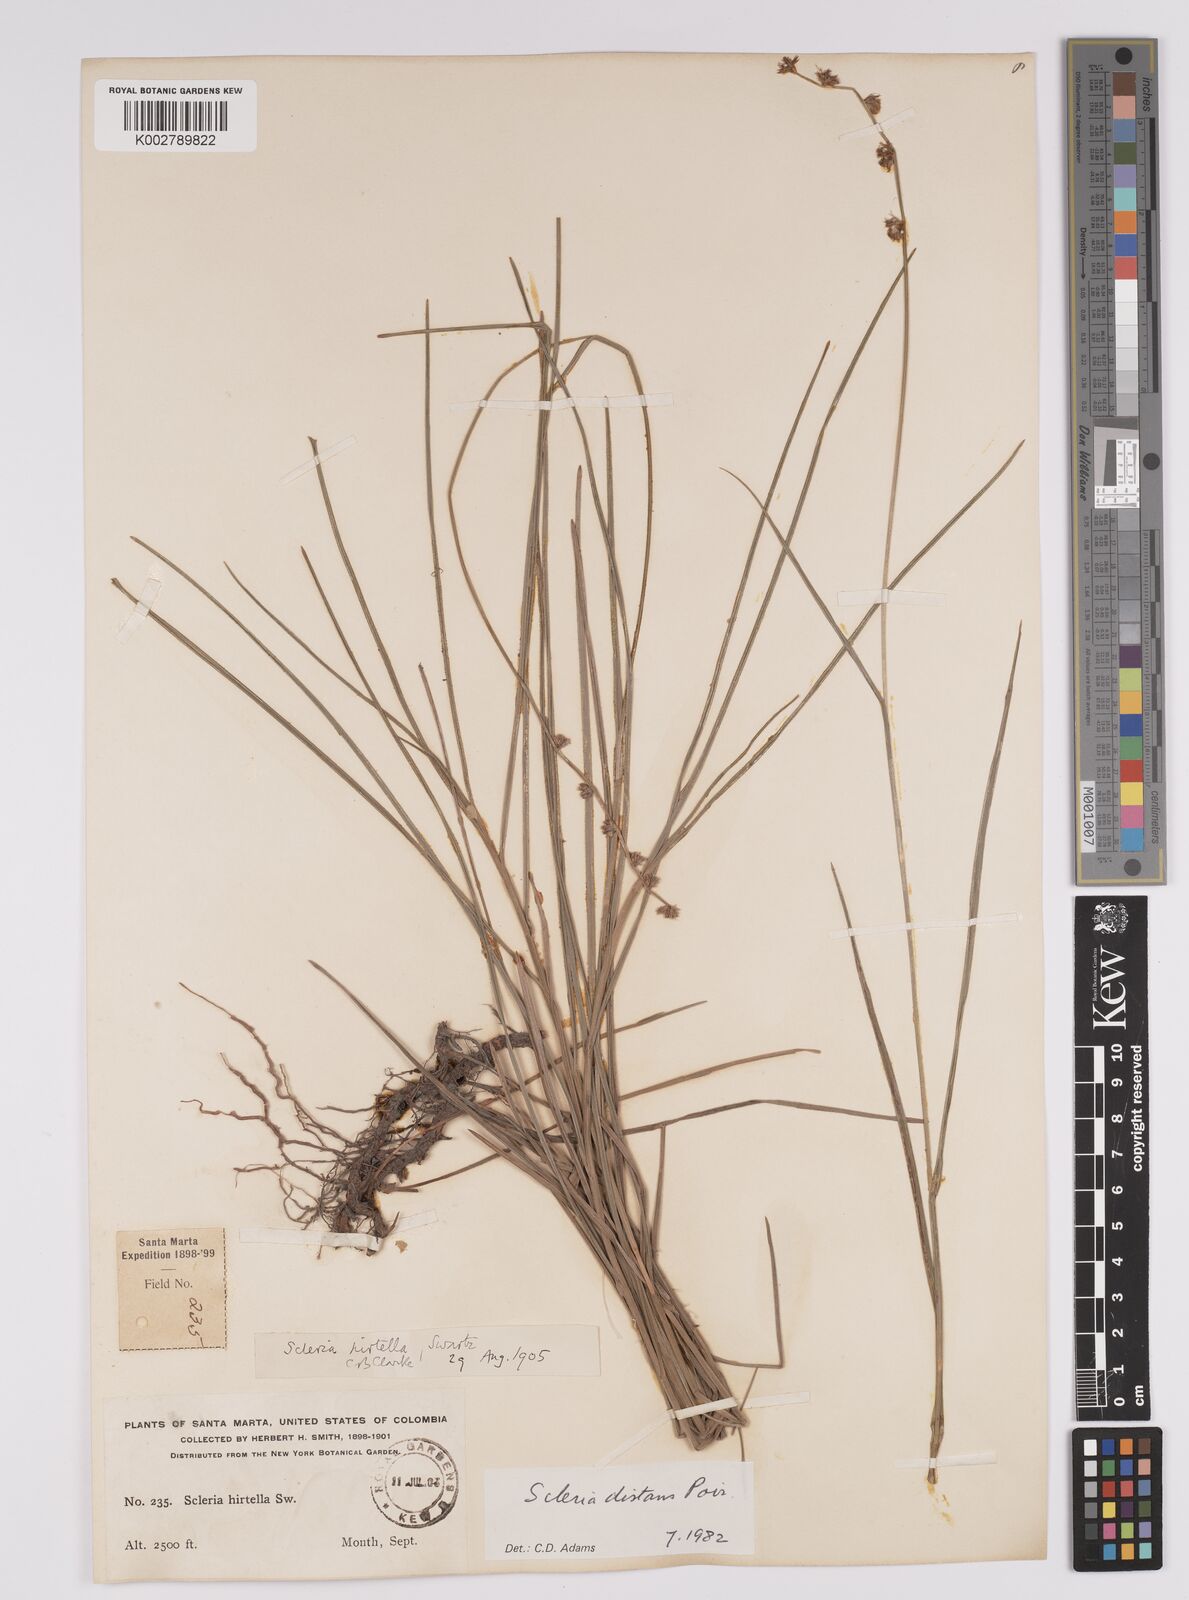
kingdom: Plantae
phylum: Tracheophyta
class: Liliopsida
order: Poales
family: Cyperaceae
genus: Scleria
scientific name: Scleria distans
